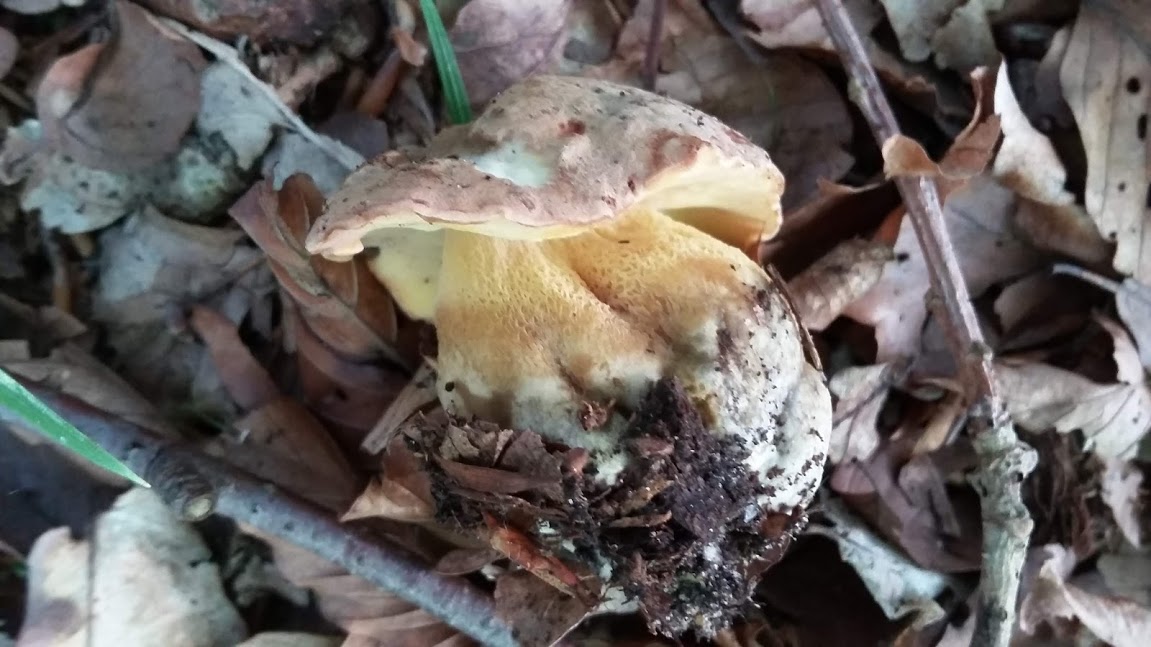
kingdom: Fungi
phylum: Basidiomycota
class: Agaricomycetes
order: Boletales
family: Boletaceae
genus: Butyriboletus
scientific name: Butyriboletus appendiculatus
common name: tenstokket rørhat
